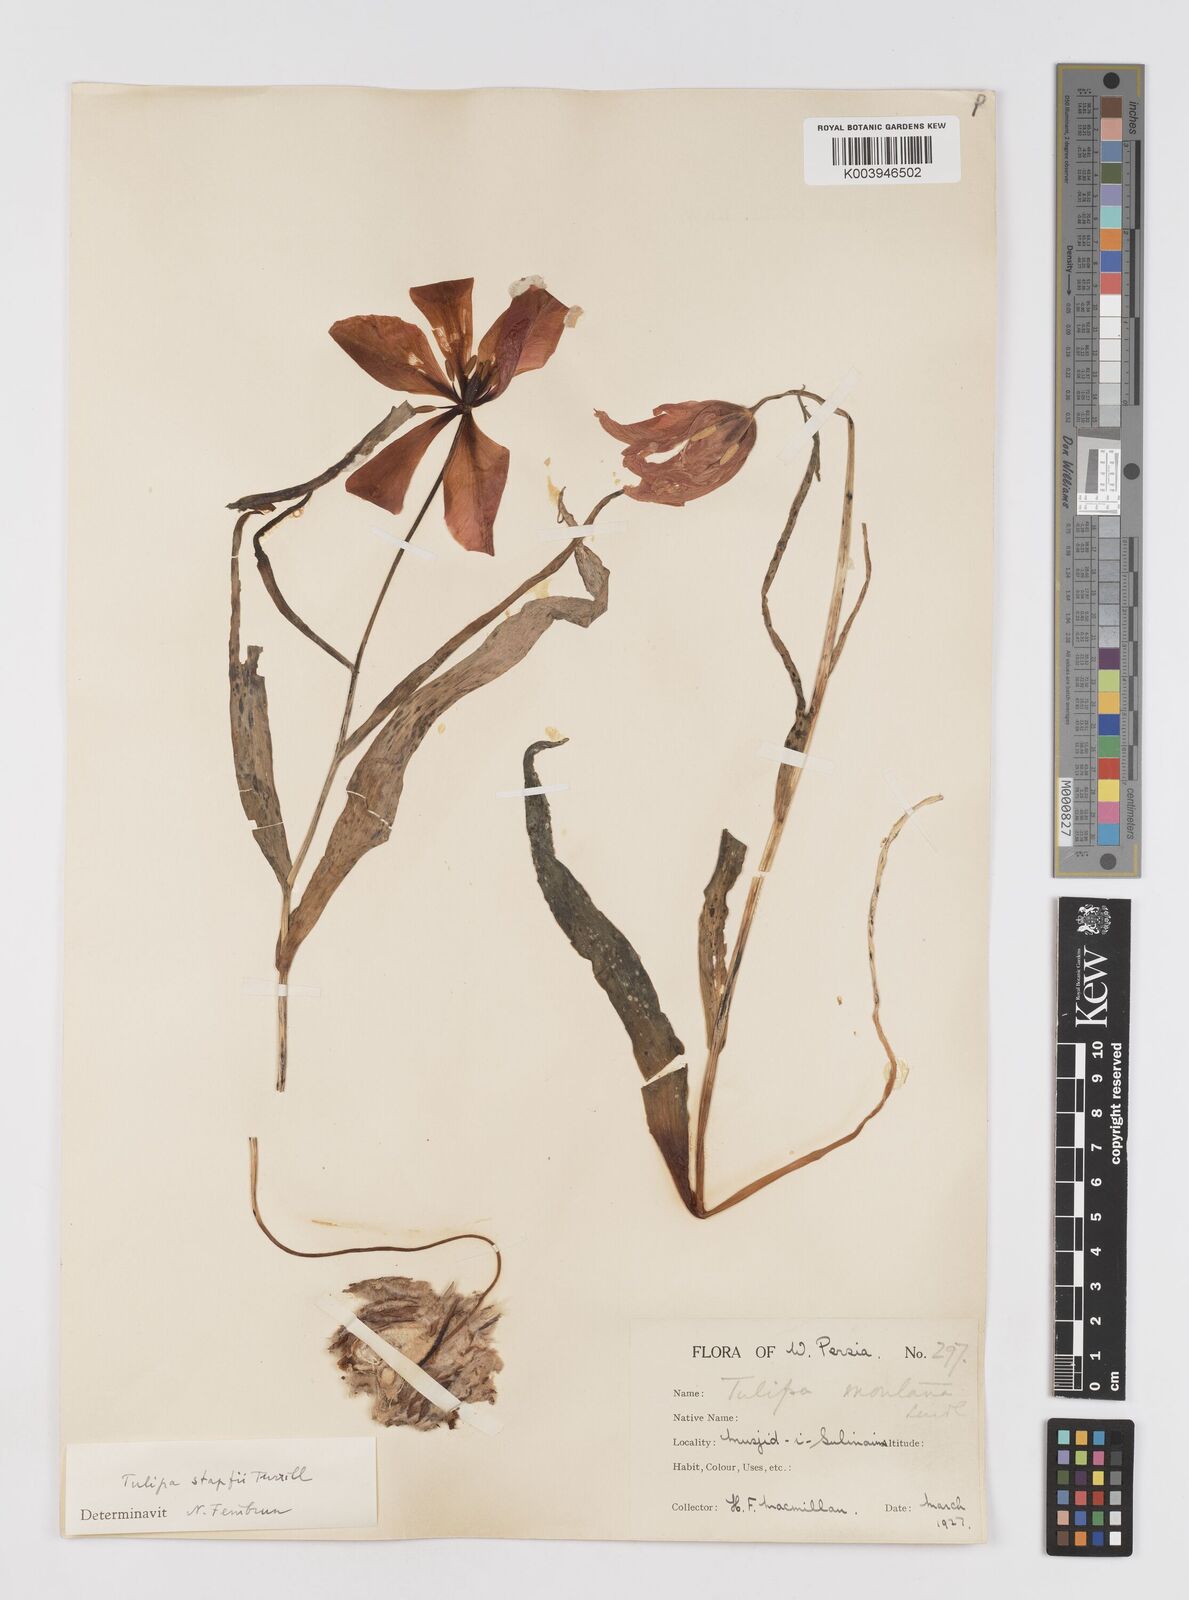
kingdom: Plantae
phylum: Tracheophyta
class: Liliopsida
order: Liliales
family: Liliaceae
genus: Tulipa
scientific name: Tulipa systola
